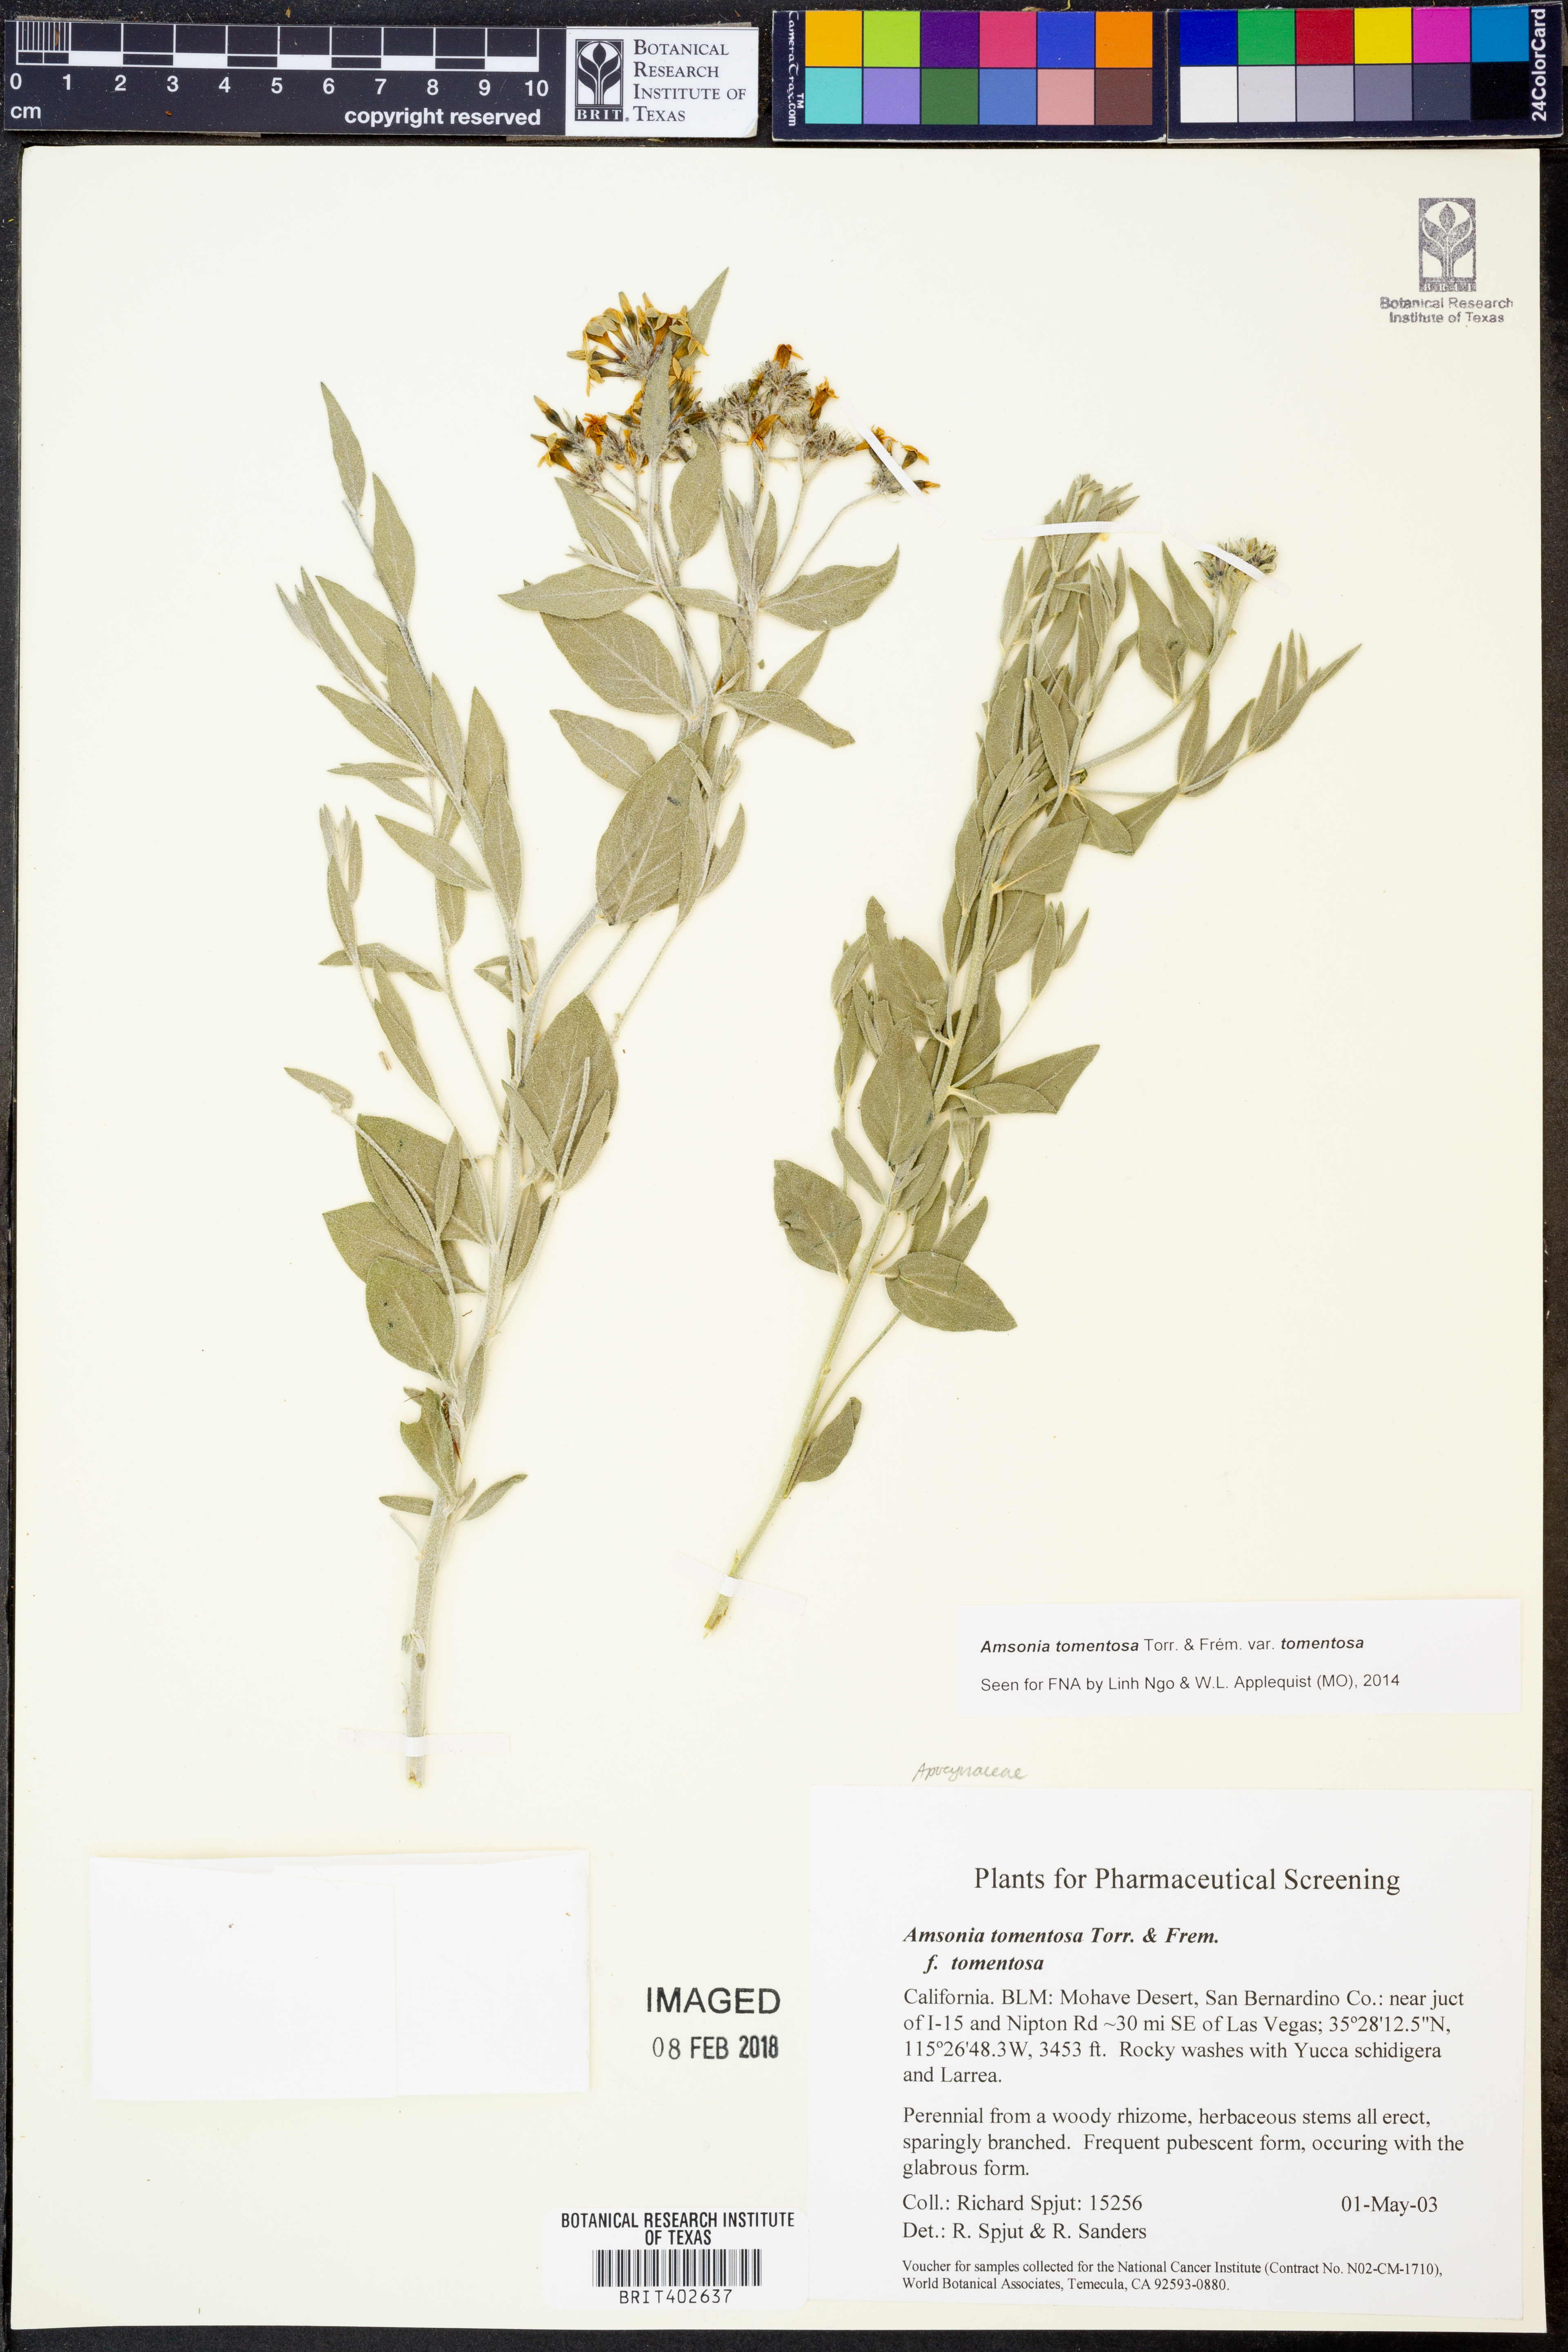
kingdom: Plantae
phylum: Tracheophyta
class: Magnoliopsida
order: Gentianales
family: Apocynaceae
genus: Amsonia
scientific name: Amsonia tomentosa
